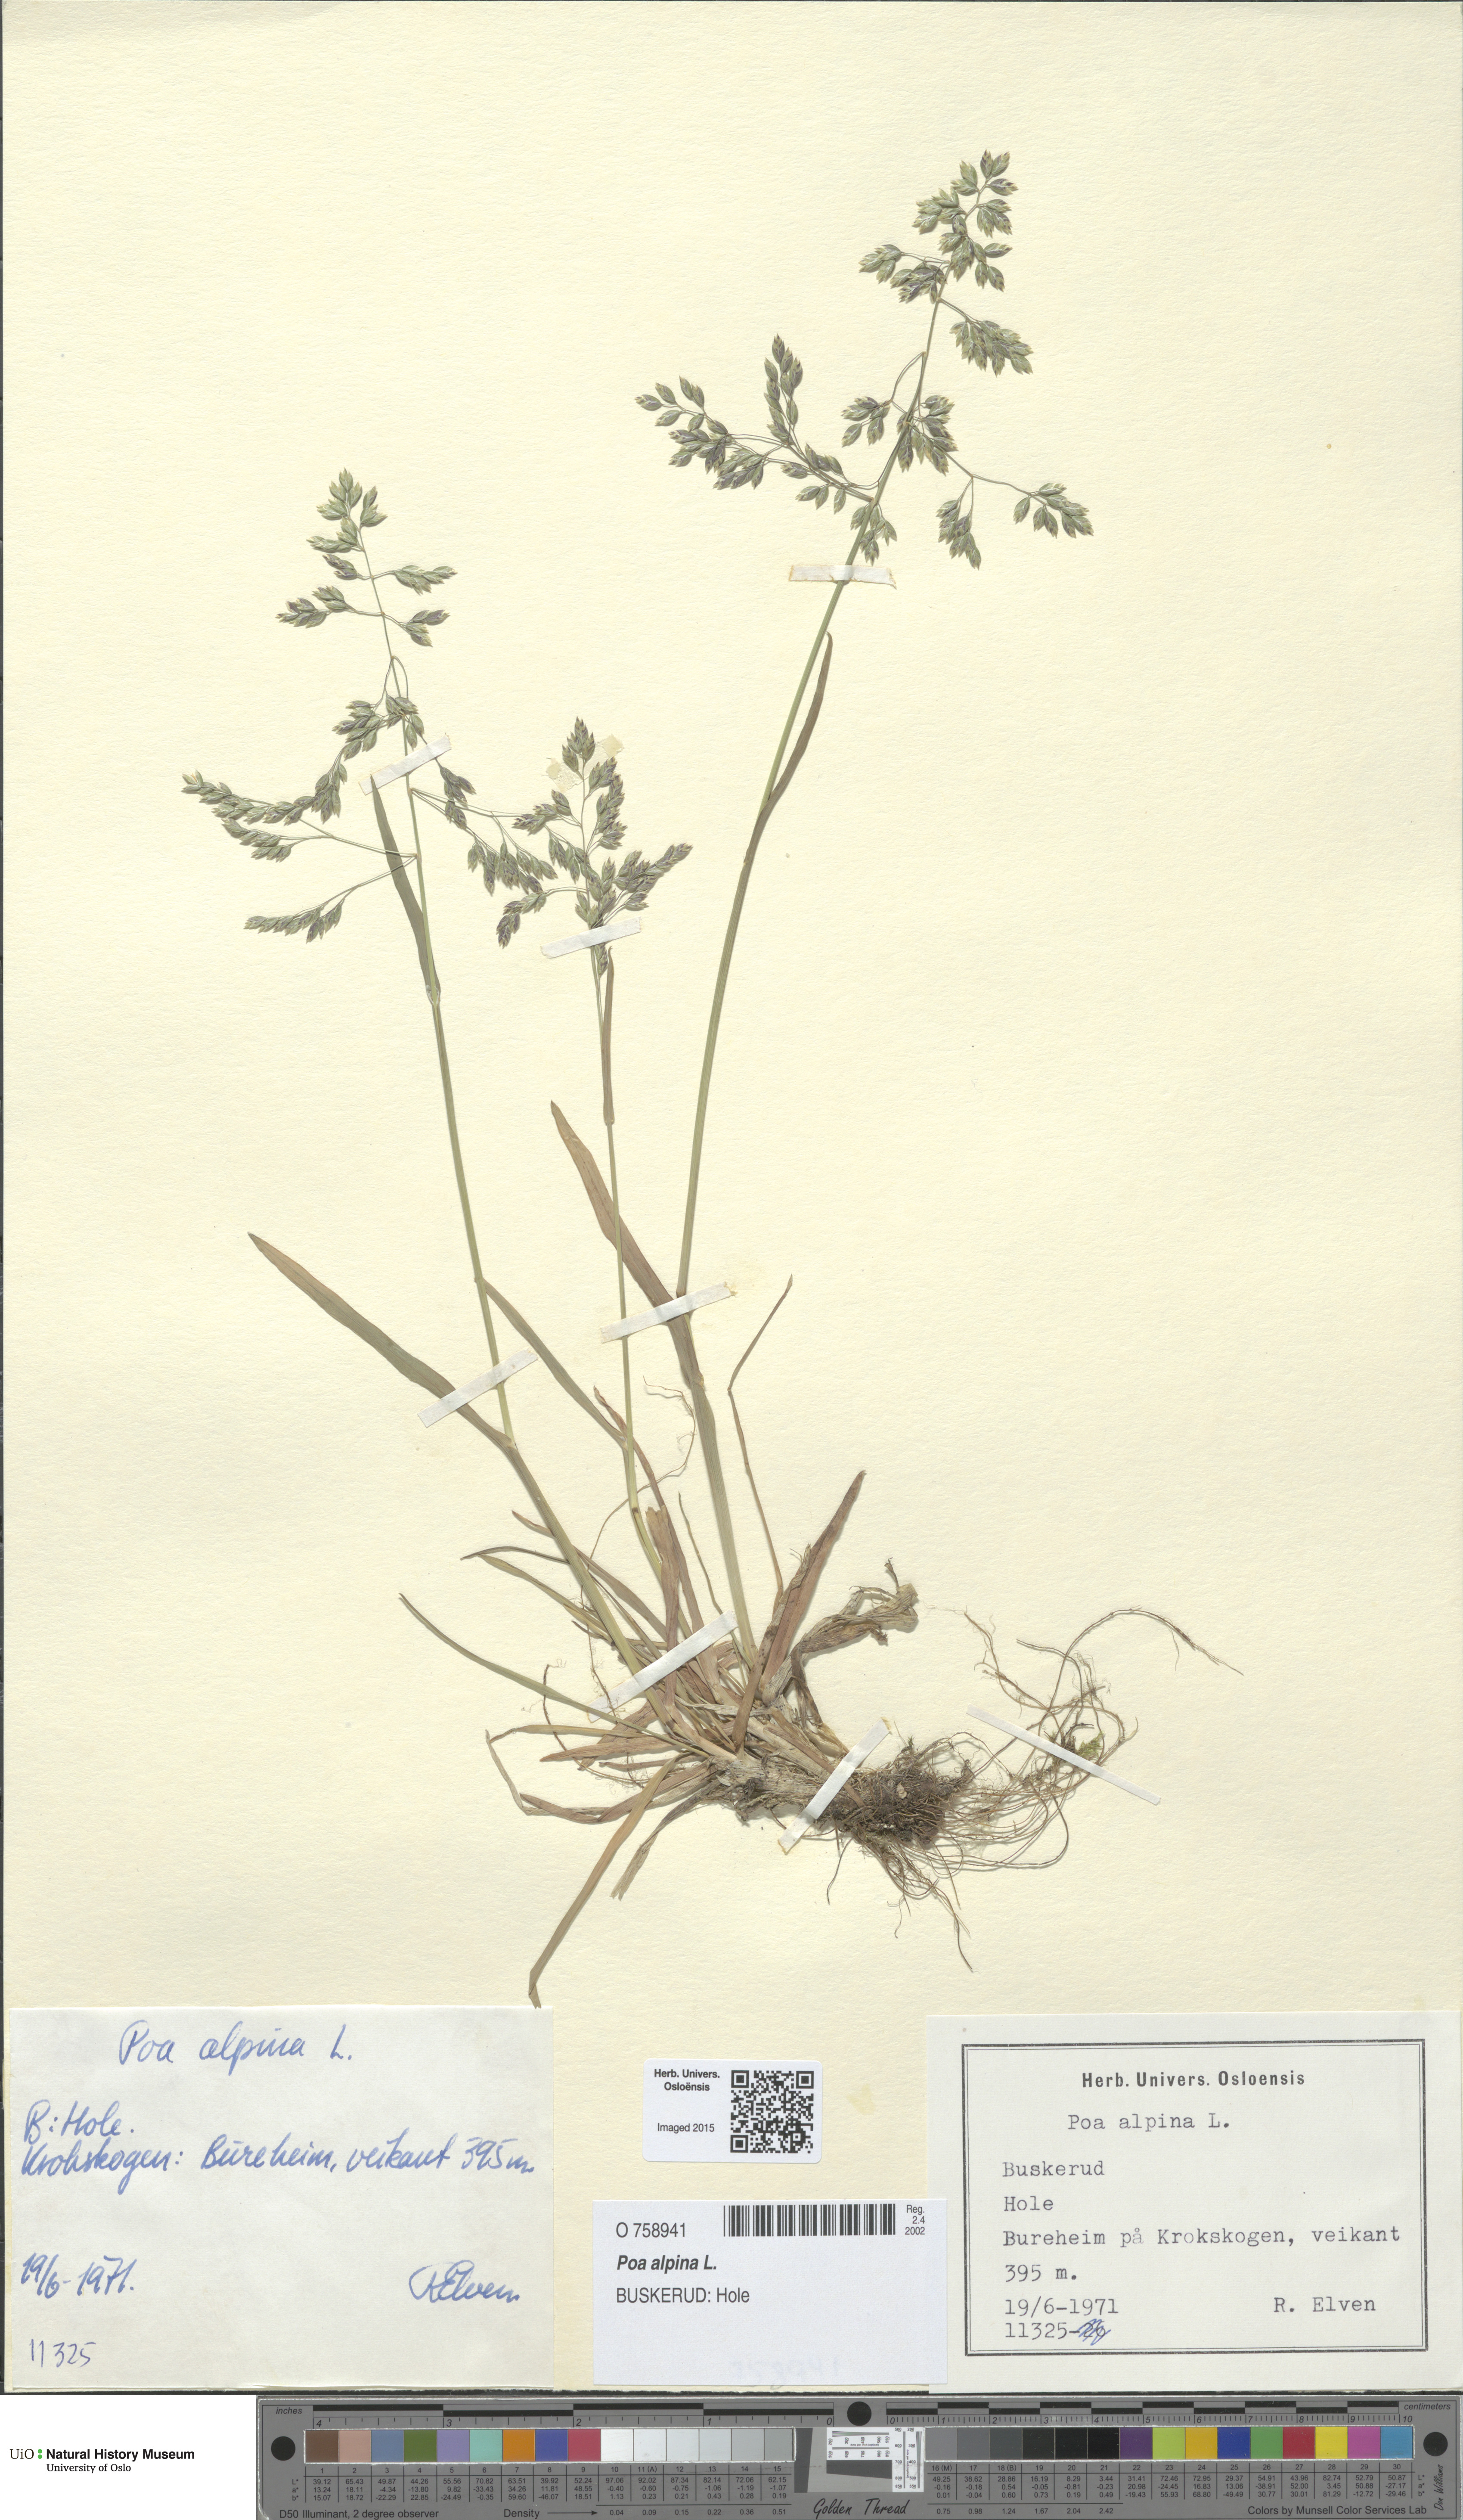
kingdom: Plantae
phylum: Tracheophyta
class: Liliopsida
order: Poales
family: Poaceae
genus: Poa
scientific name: Poa alpina
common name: Alpine bluegrass
